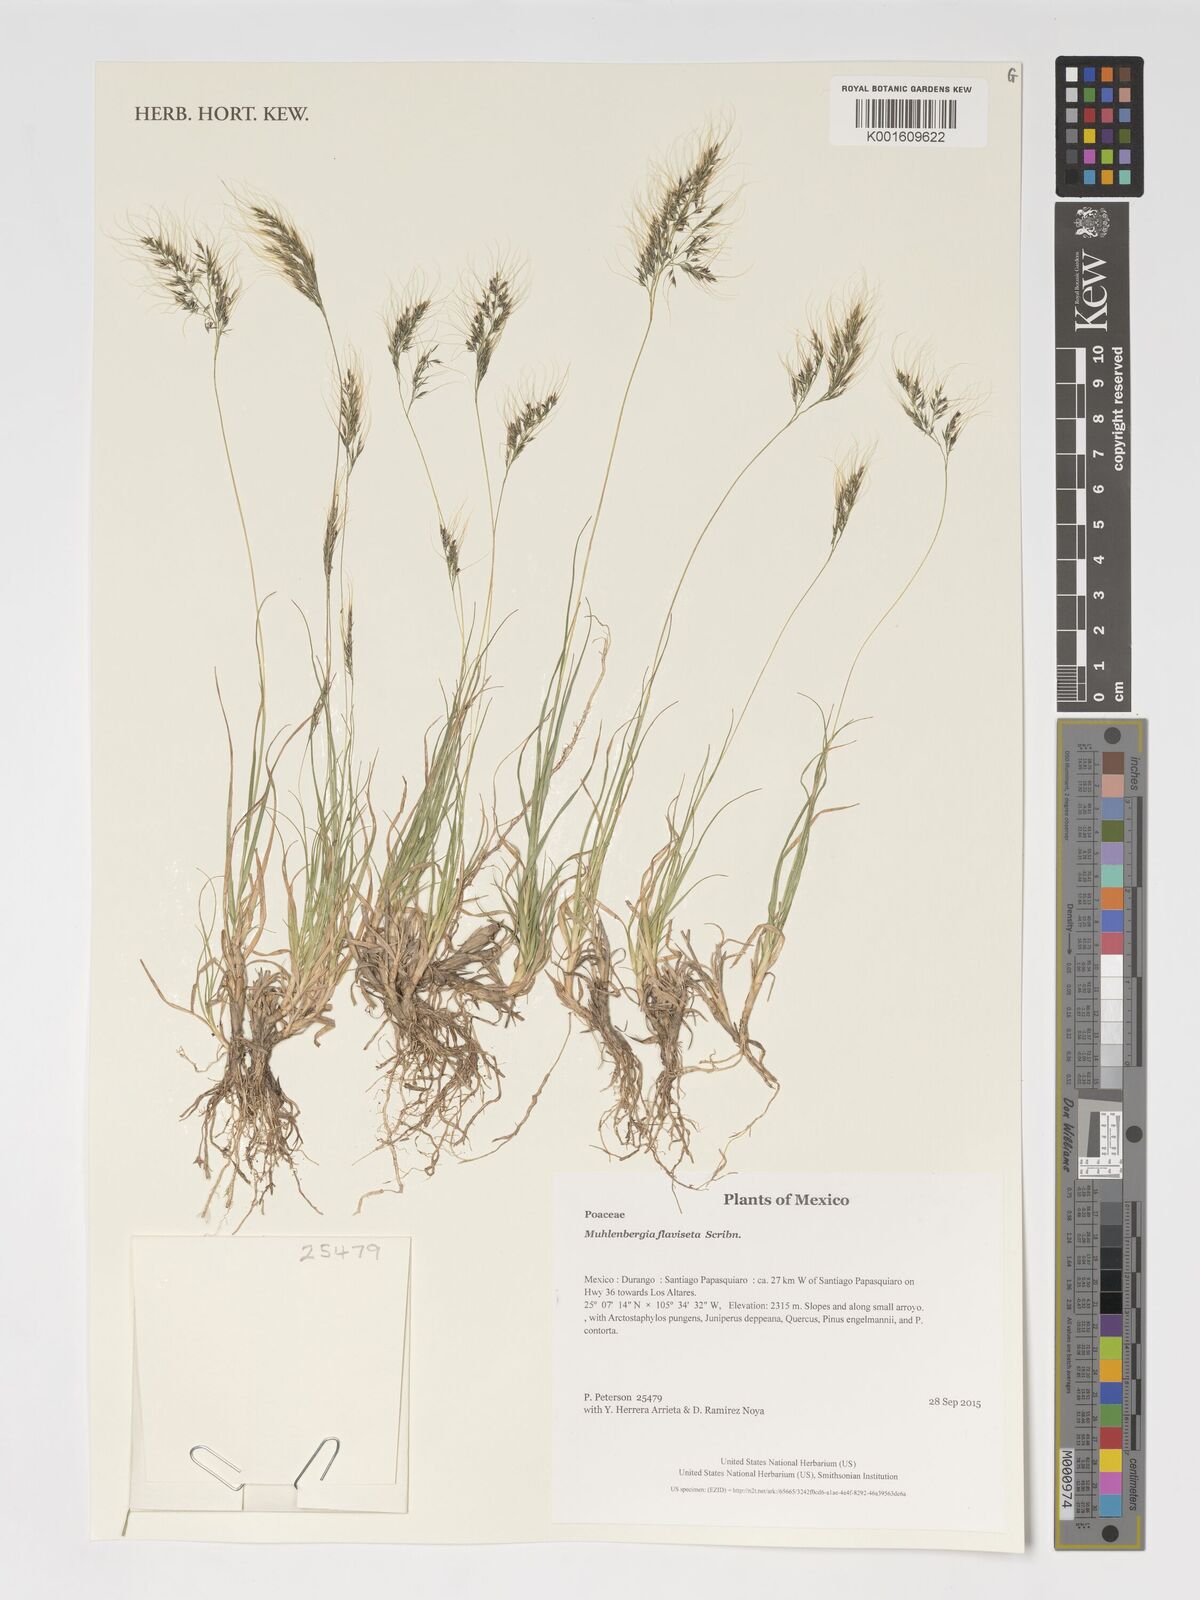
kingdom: Plantae
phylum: Tracheophyta
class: Liliopsida
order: Poales
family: Poaceae
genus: Muhlenbergia
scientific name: Muhlenbergia flaviseta
